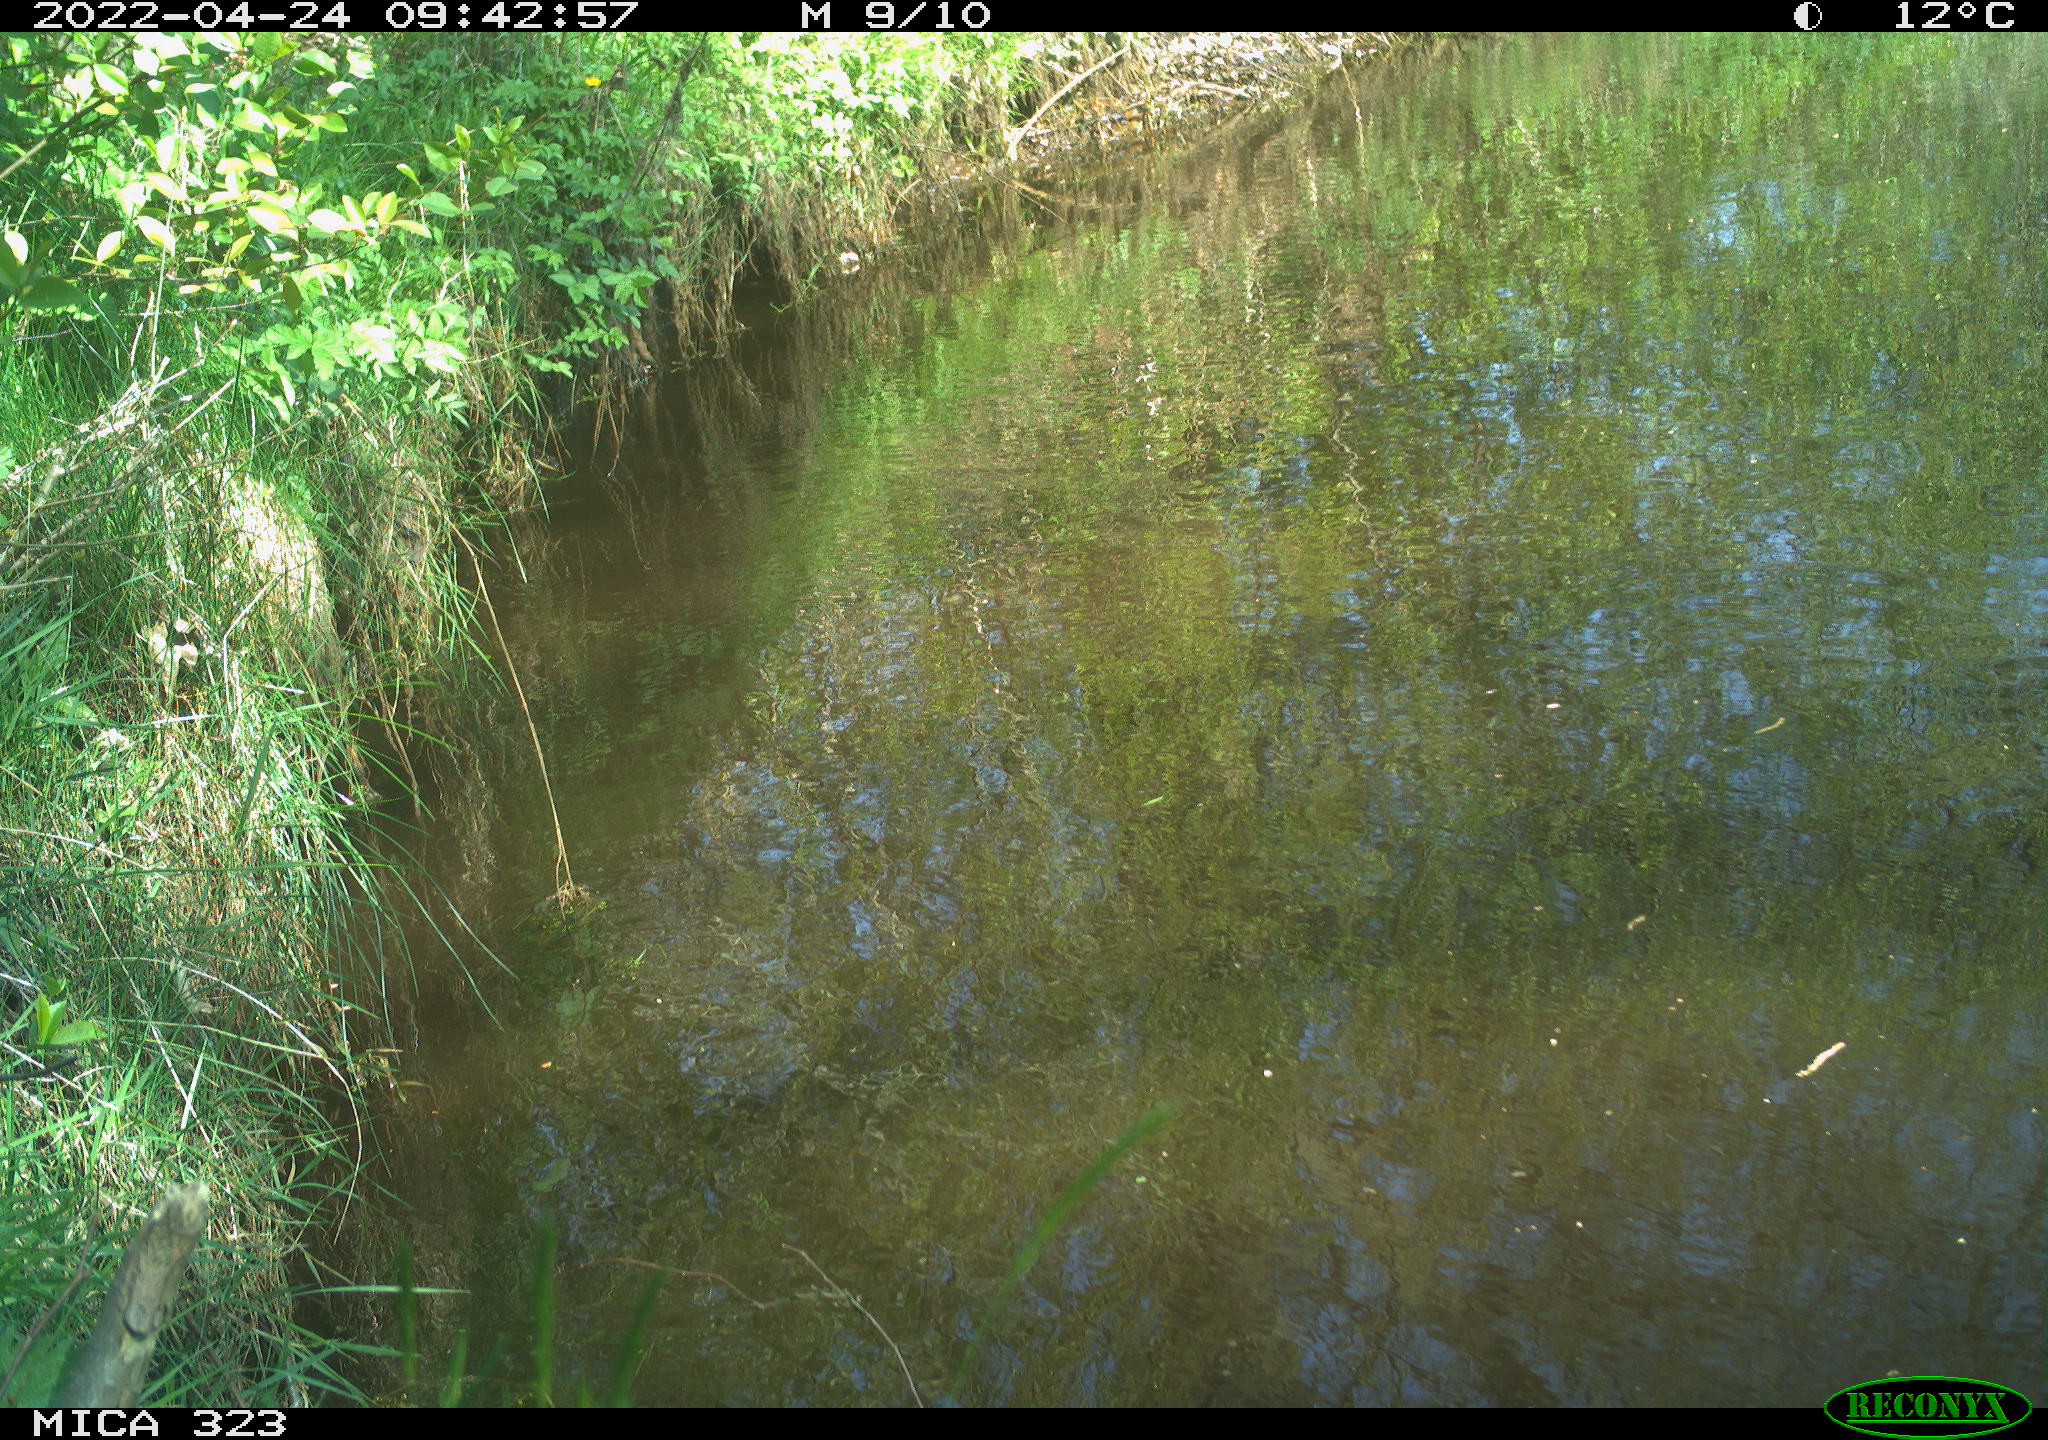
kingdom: Animalia
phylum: Chordata
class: Aves
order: Gruiformes
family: Rallidae
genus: Gallinula
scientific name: Gallinula chloropus
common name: Common moorhen
